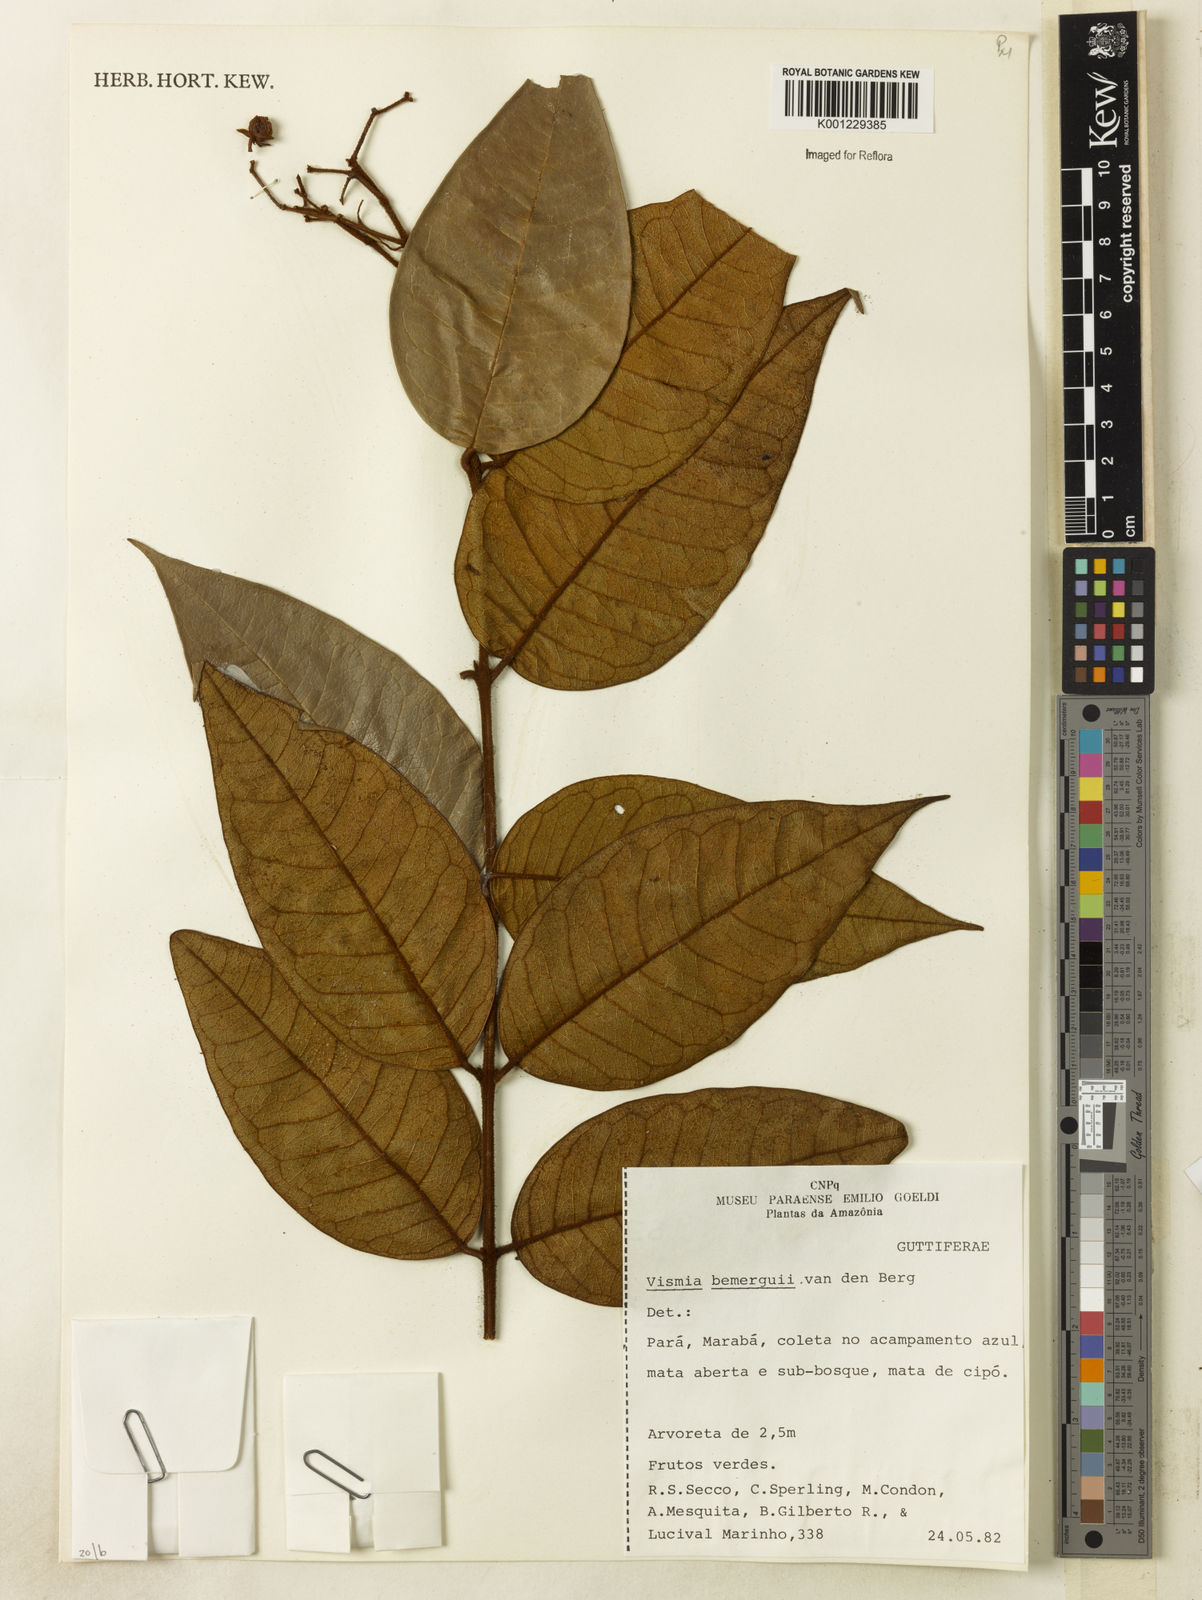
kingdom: Plantae
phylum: Tracheophyta
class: Magnoliopsida
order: Malpighiales
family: Hypericaceae
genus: Vismia
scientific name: Vismia bemerguii
